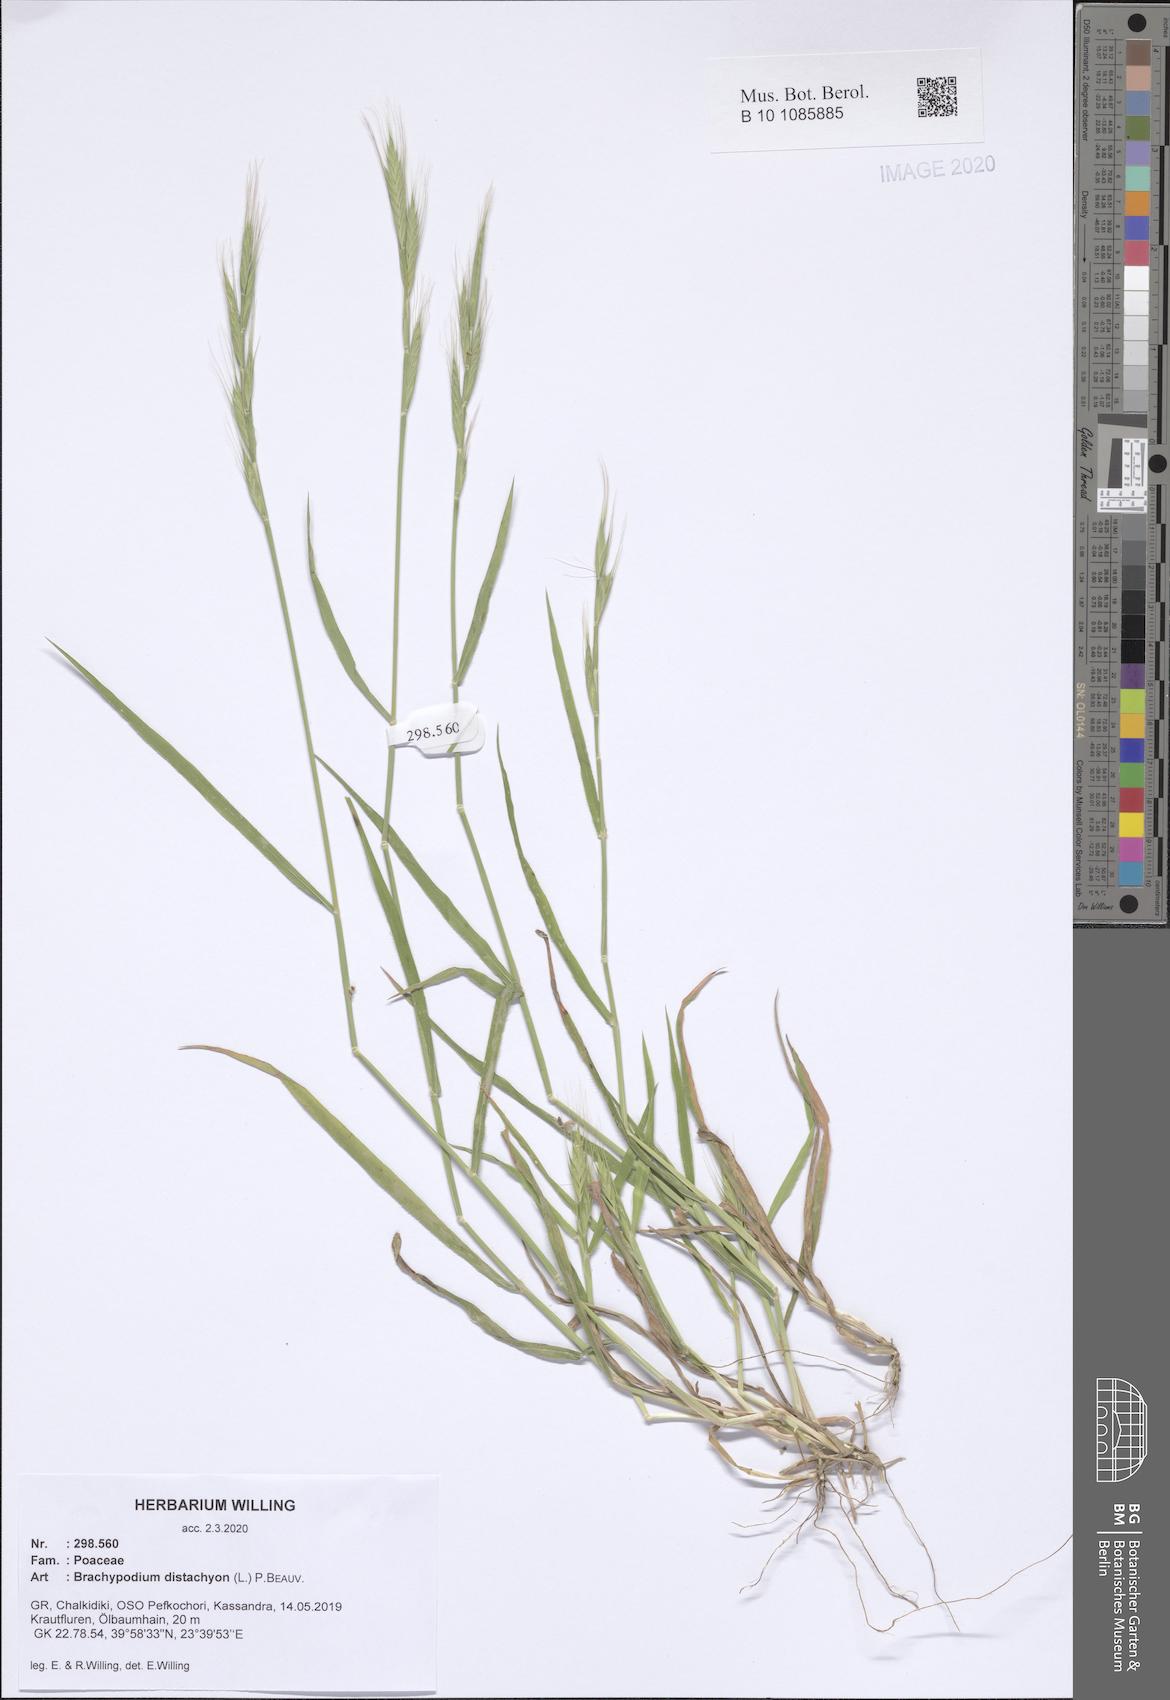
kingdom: Plantae
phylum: Tracheophyta
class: Liliopsida
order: Poales
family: Poaceae
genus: Brachypodium
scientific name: Brachypodium distachyon
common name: Stiff brome
